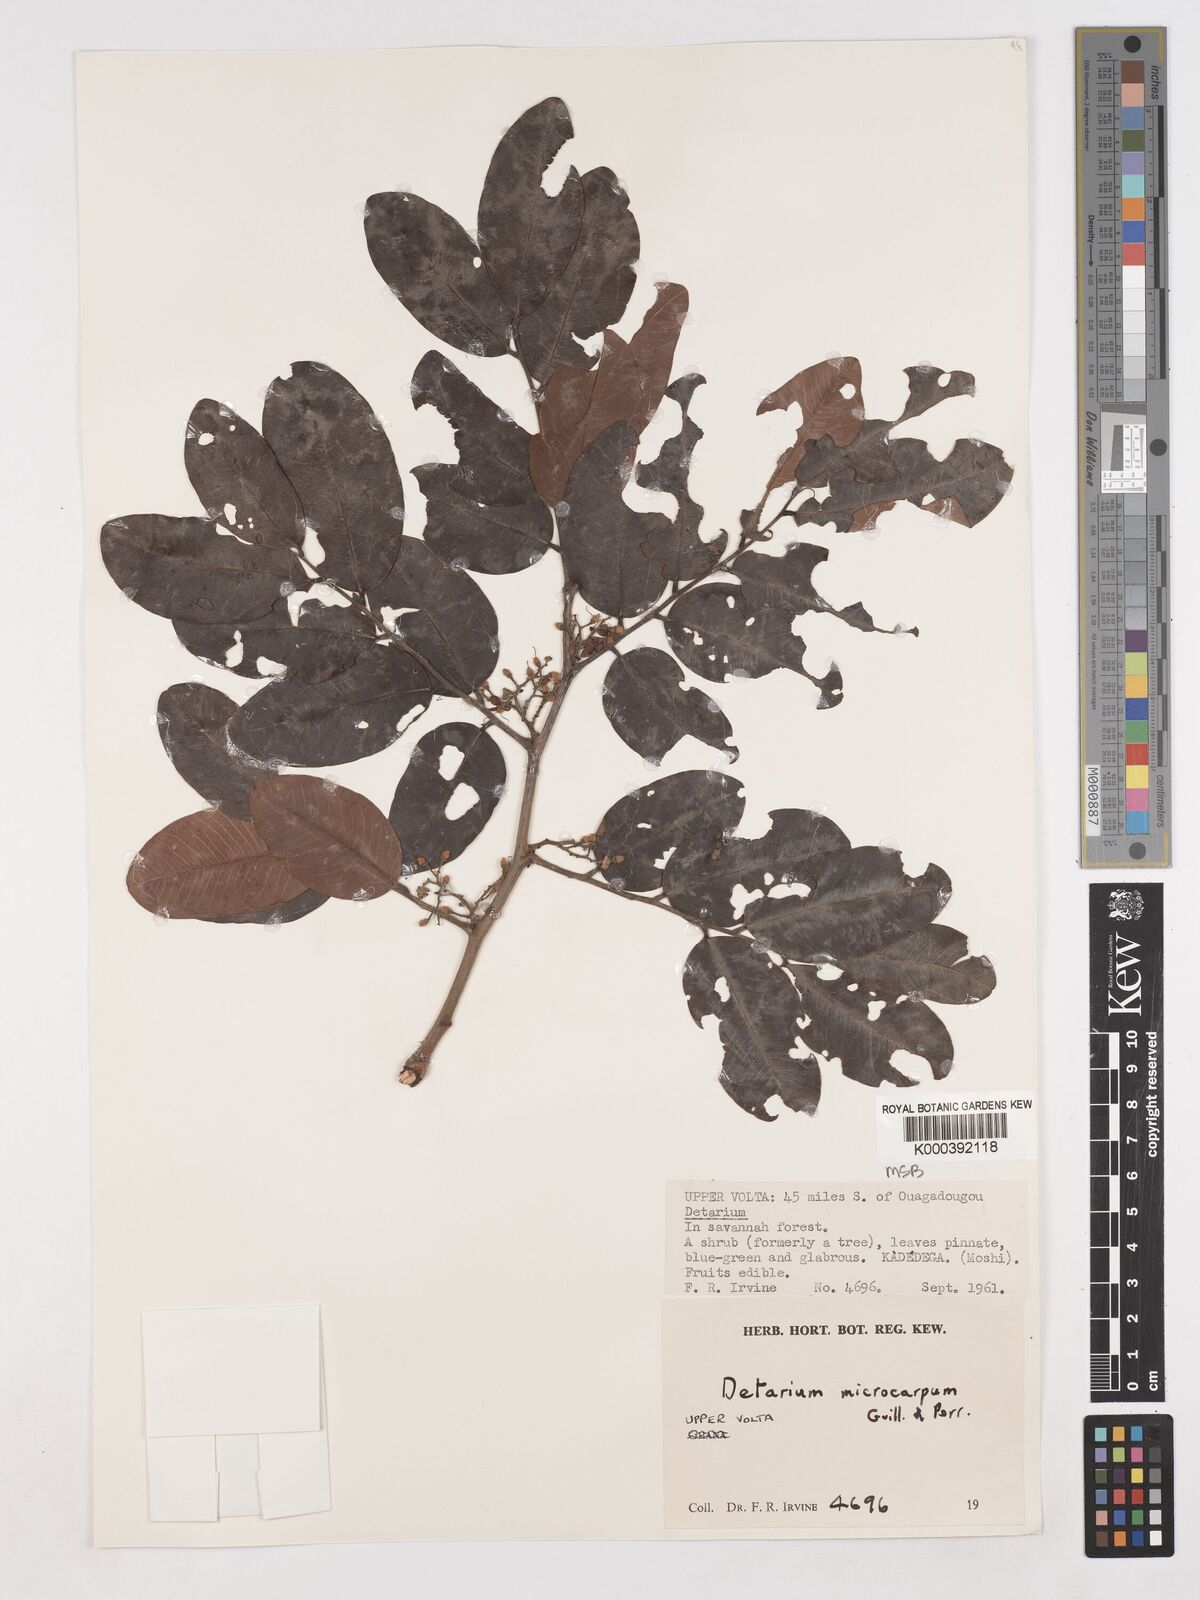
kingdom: Plantae
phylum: Tracheophyta
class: Magnoliopsida
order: Fabales
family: Fabaceae
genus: Detarium
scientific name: Detarium microcarpum
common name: Sweet dattock
